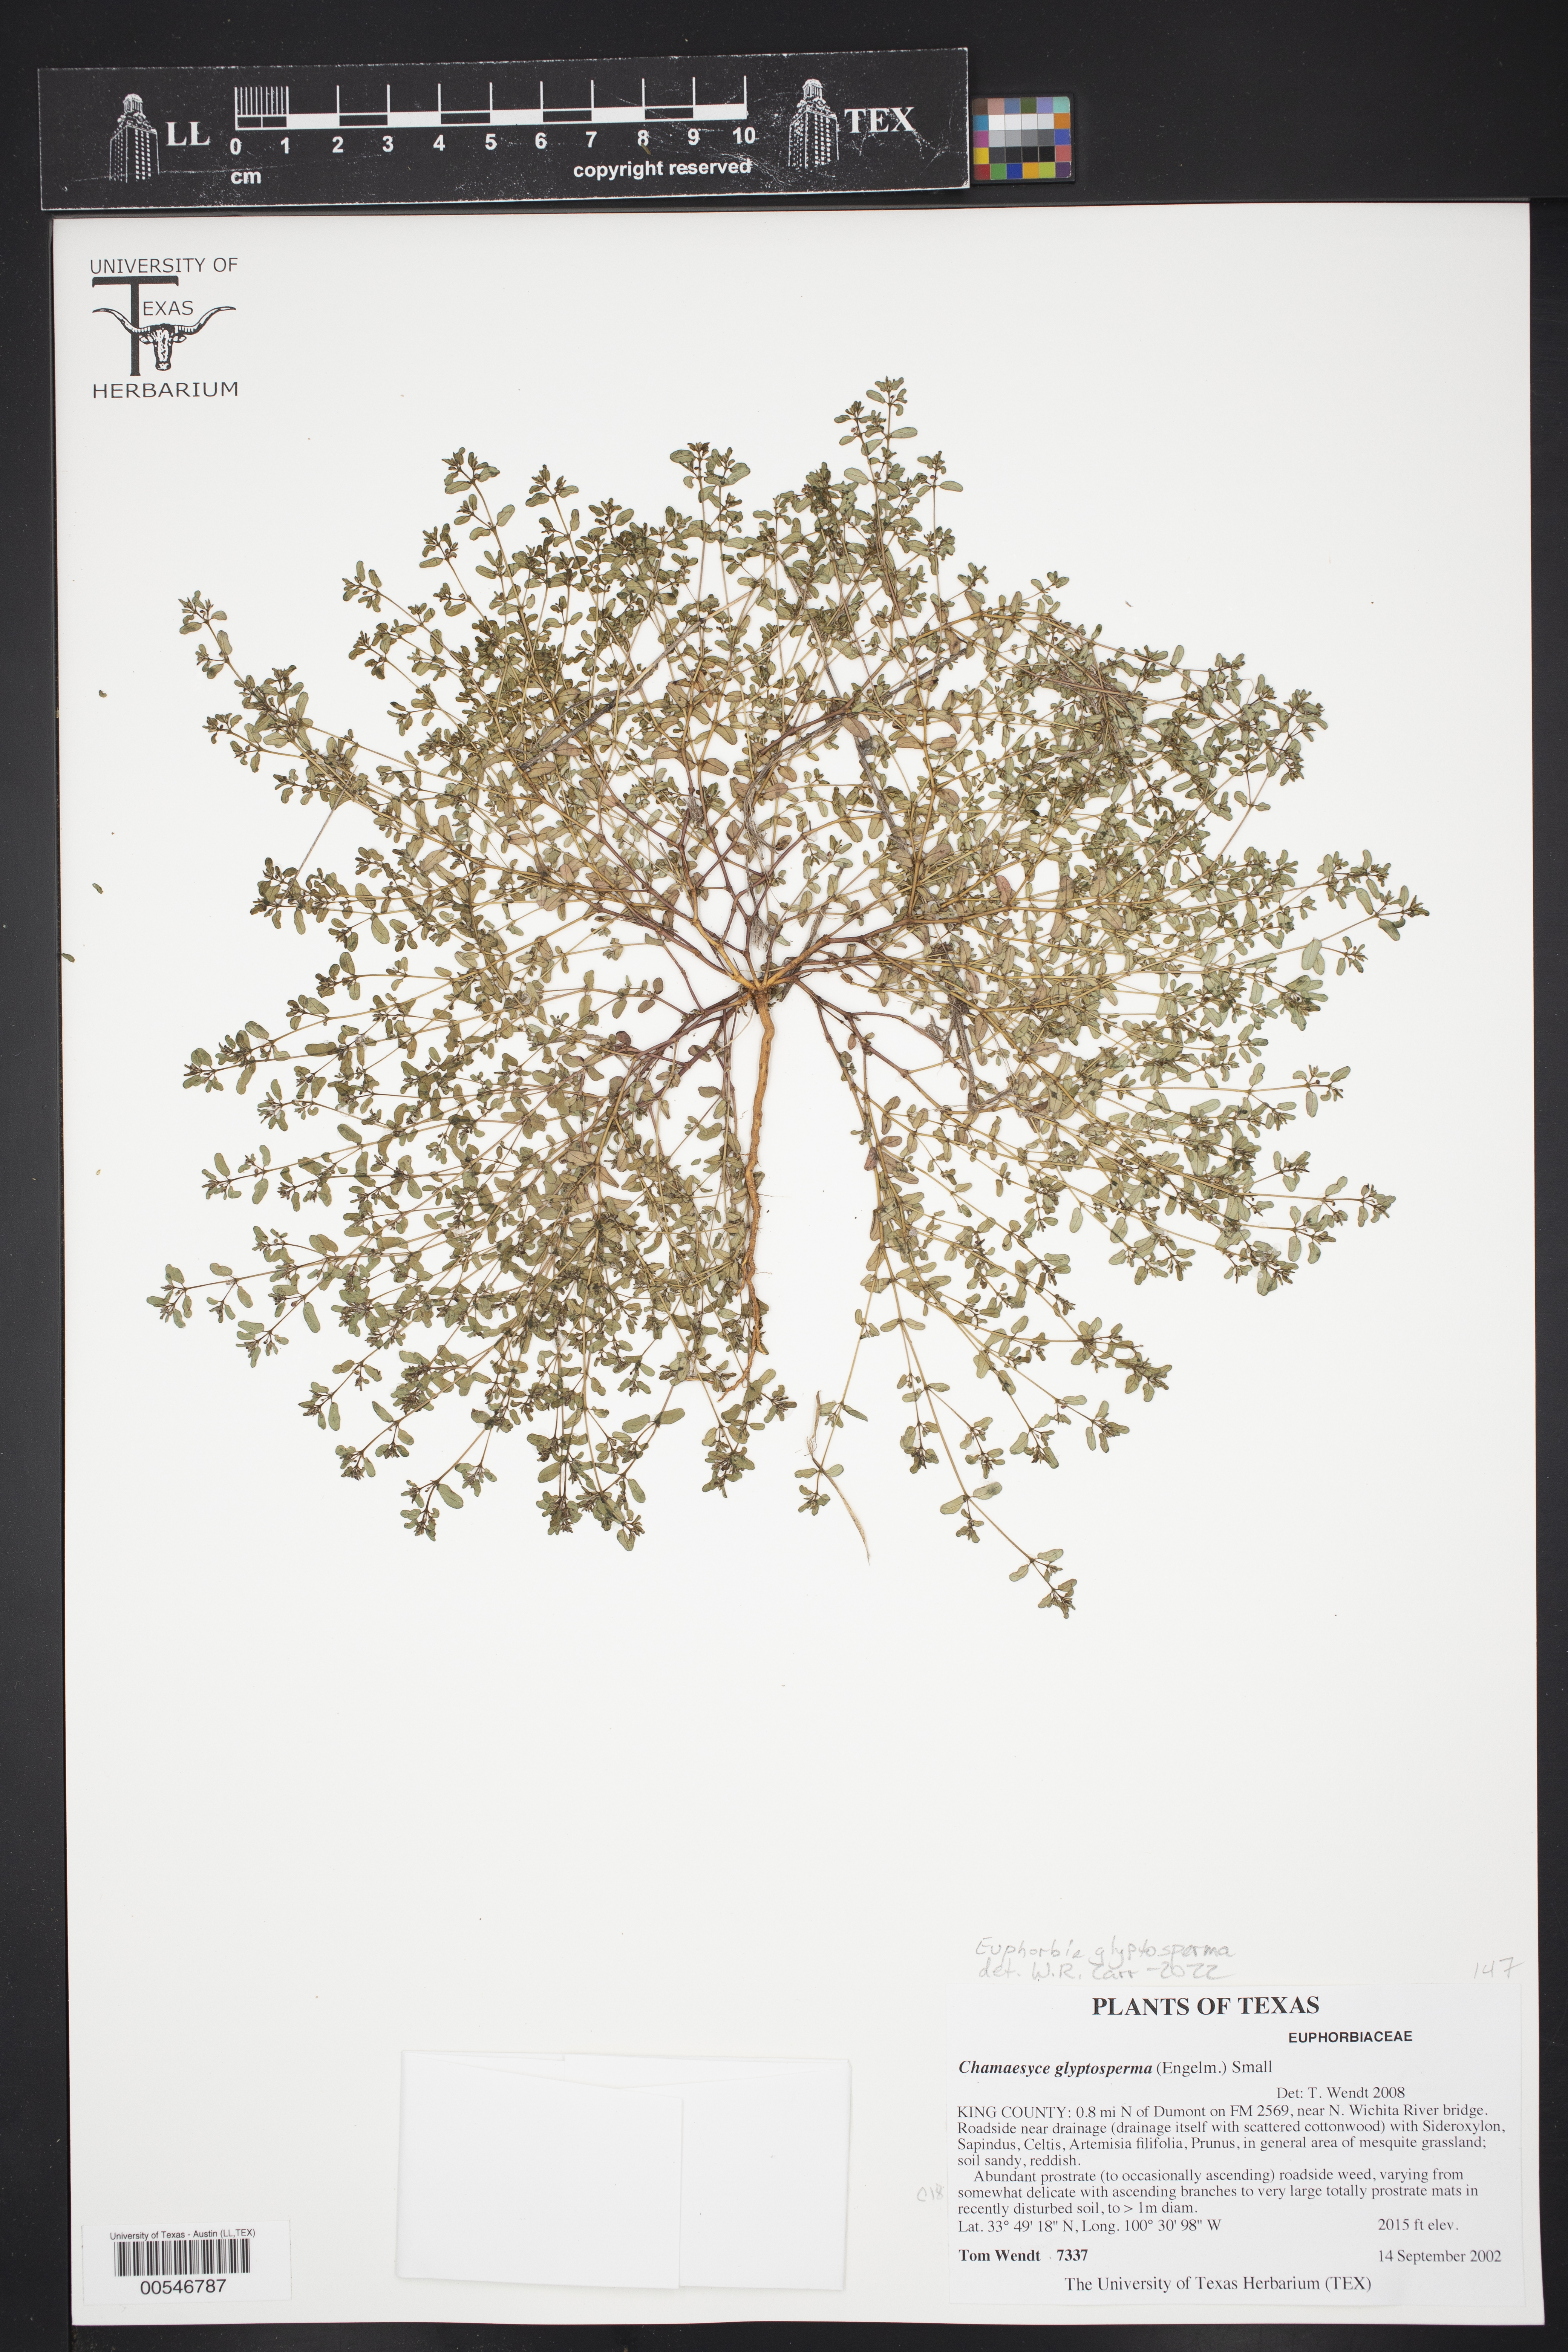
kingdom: Plantae
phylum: Tracheophyta
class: Magnoliopsida
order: Malpighiales
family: Euphorbiaceae
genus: Euphorbia
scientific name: Euphorbia glyptosperma
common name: Corrugate-seeded spurge
